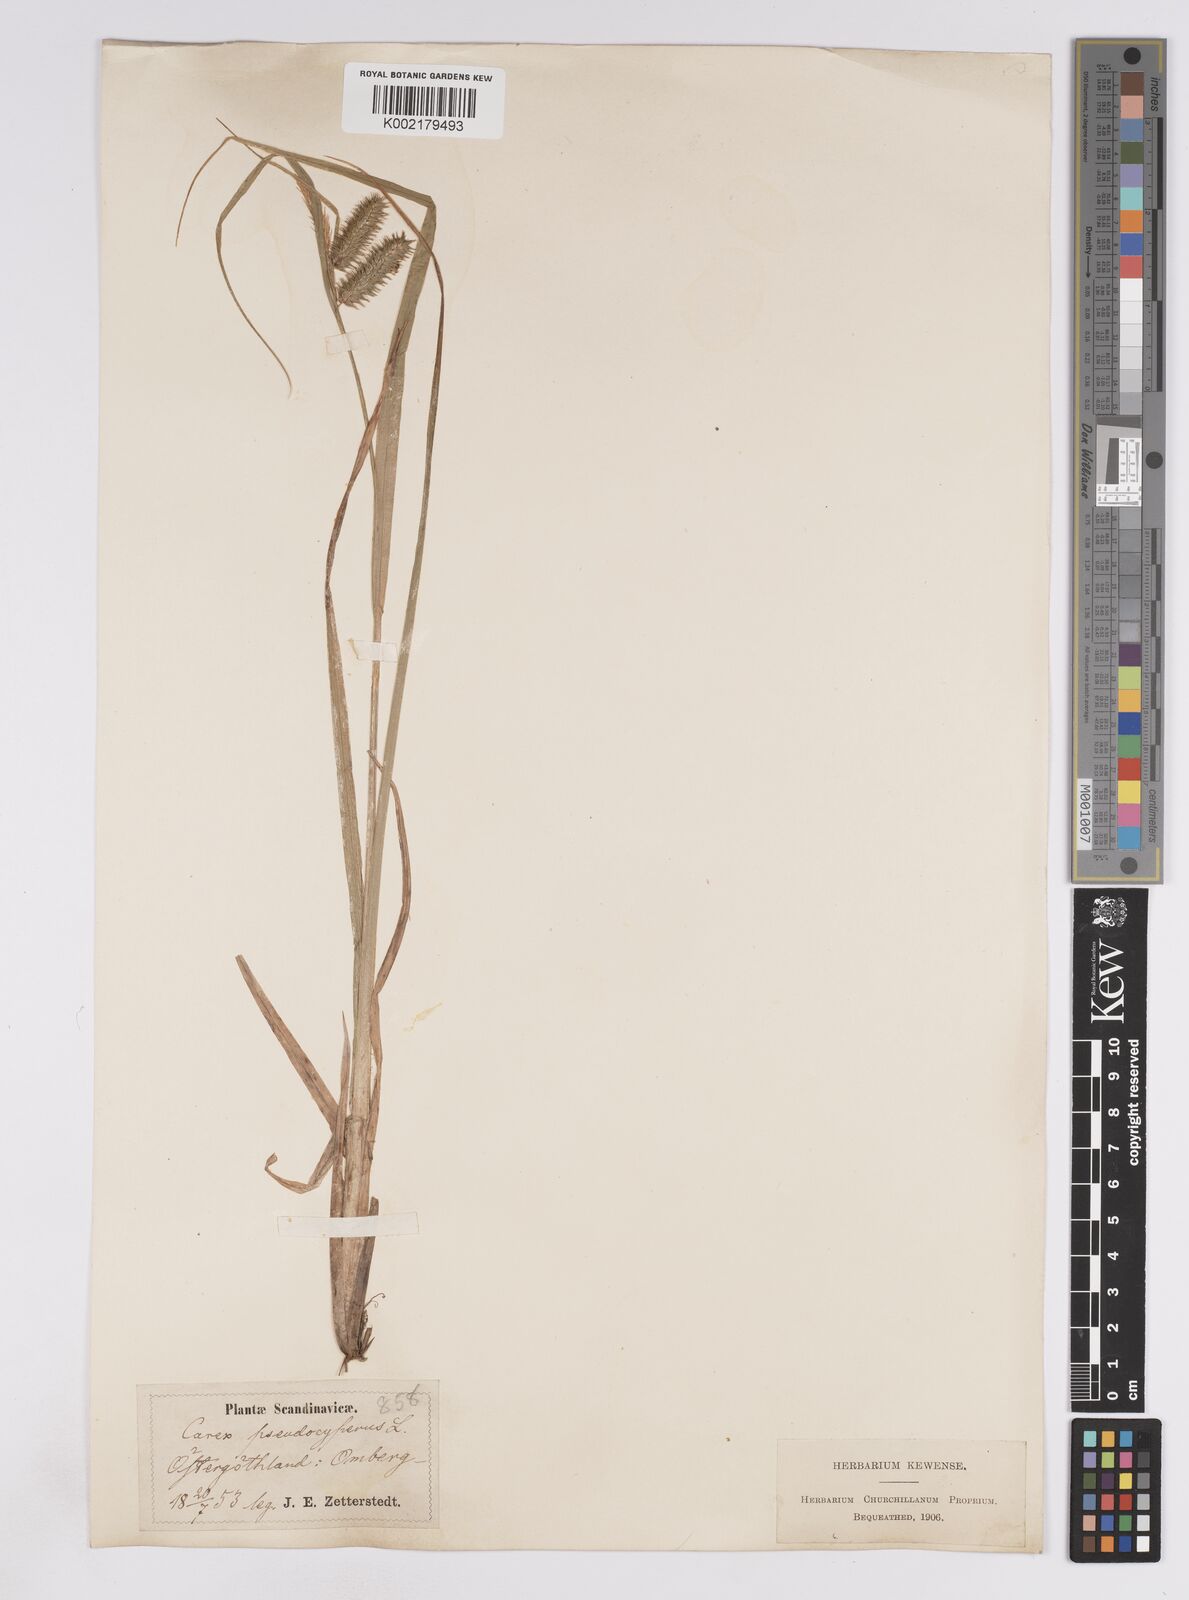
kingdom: Plantae
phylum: Tracheophyta
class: Liliopsida
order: Poales
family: Cyperaceae
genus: Carex
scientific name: Carex pseudocyperus
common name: Cyperus sedge
